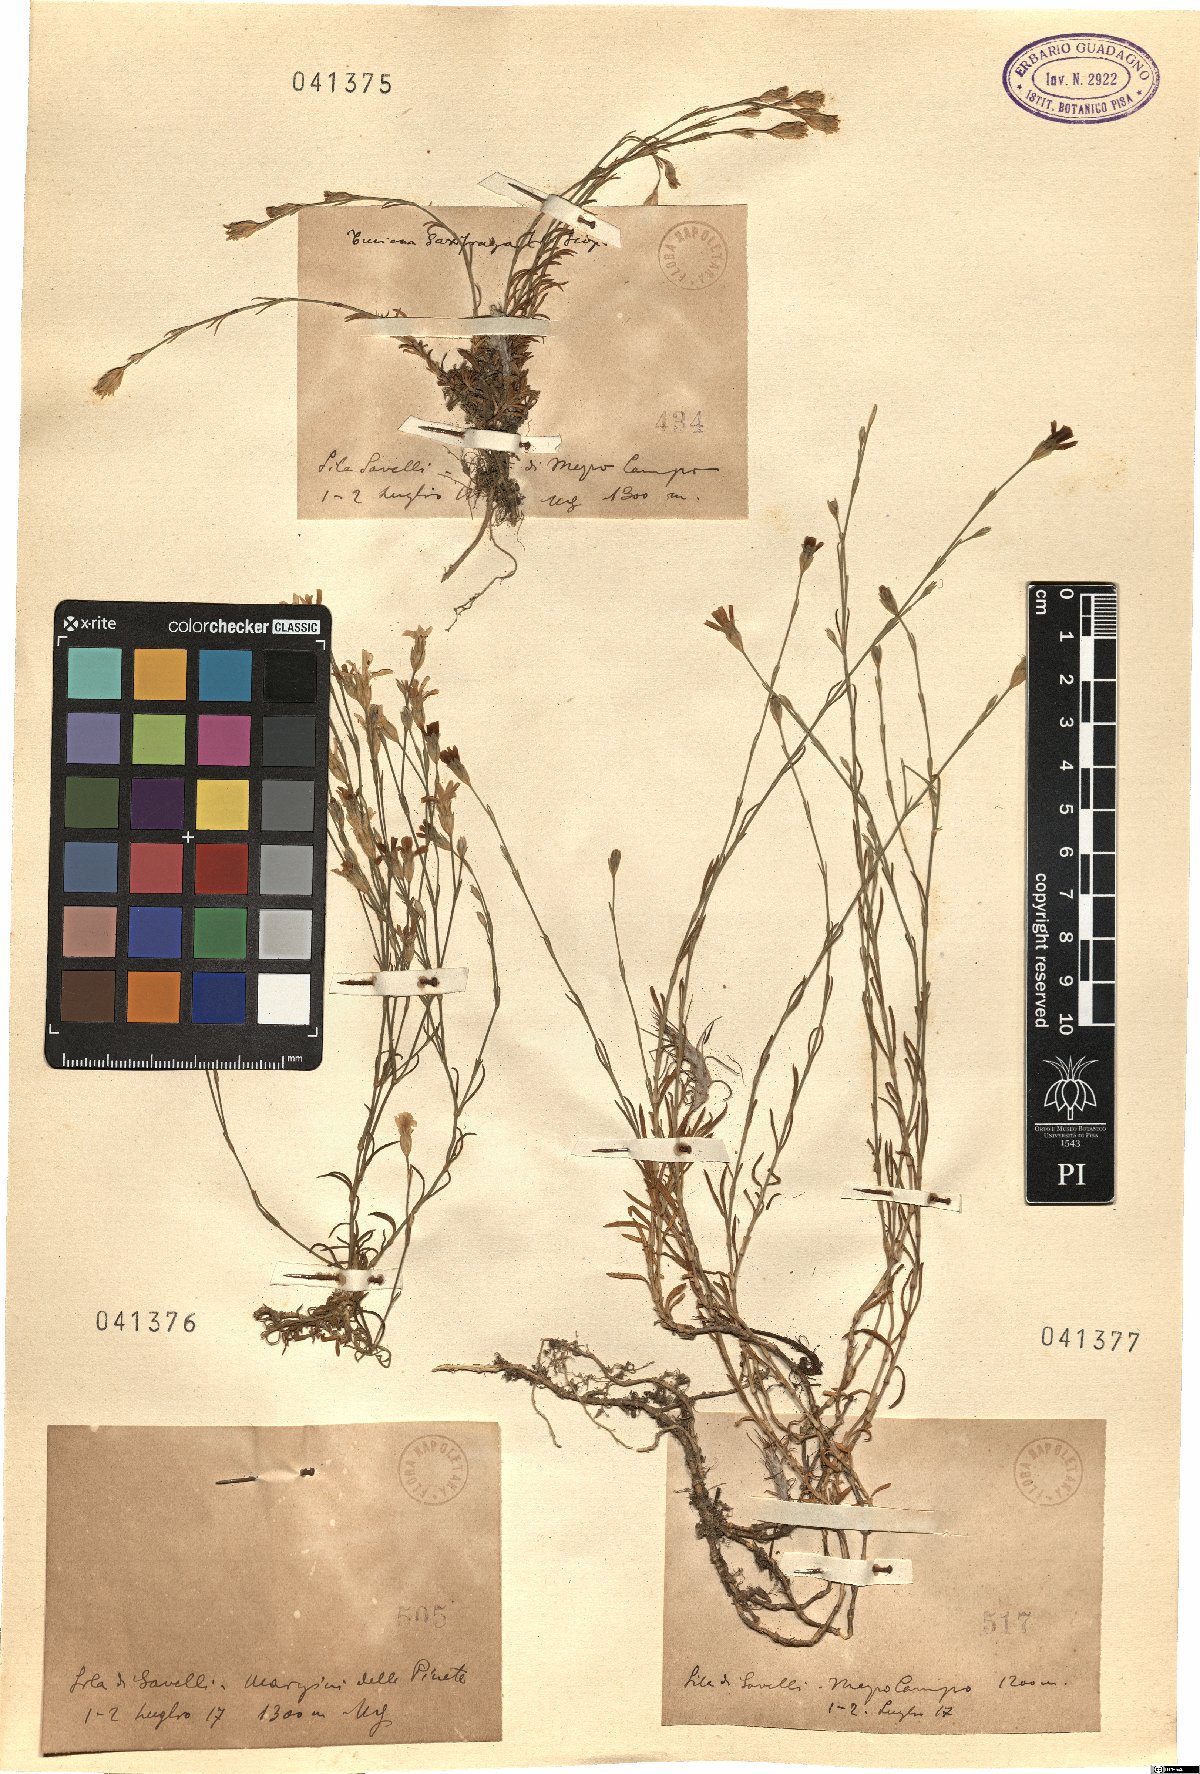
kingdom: Plantae
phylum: Tracheophyta
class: Magnoliopsida
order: Caryophyllales
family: Caryophyllaceae
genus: Tunica
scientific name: Tunica
